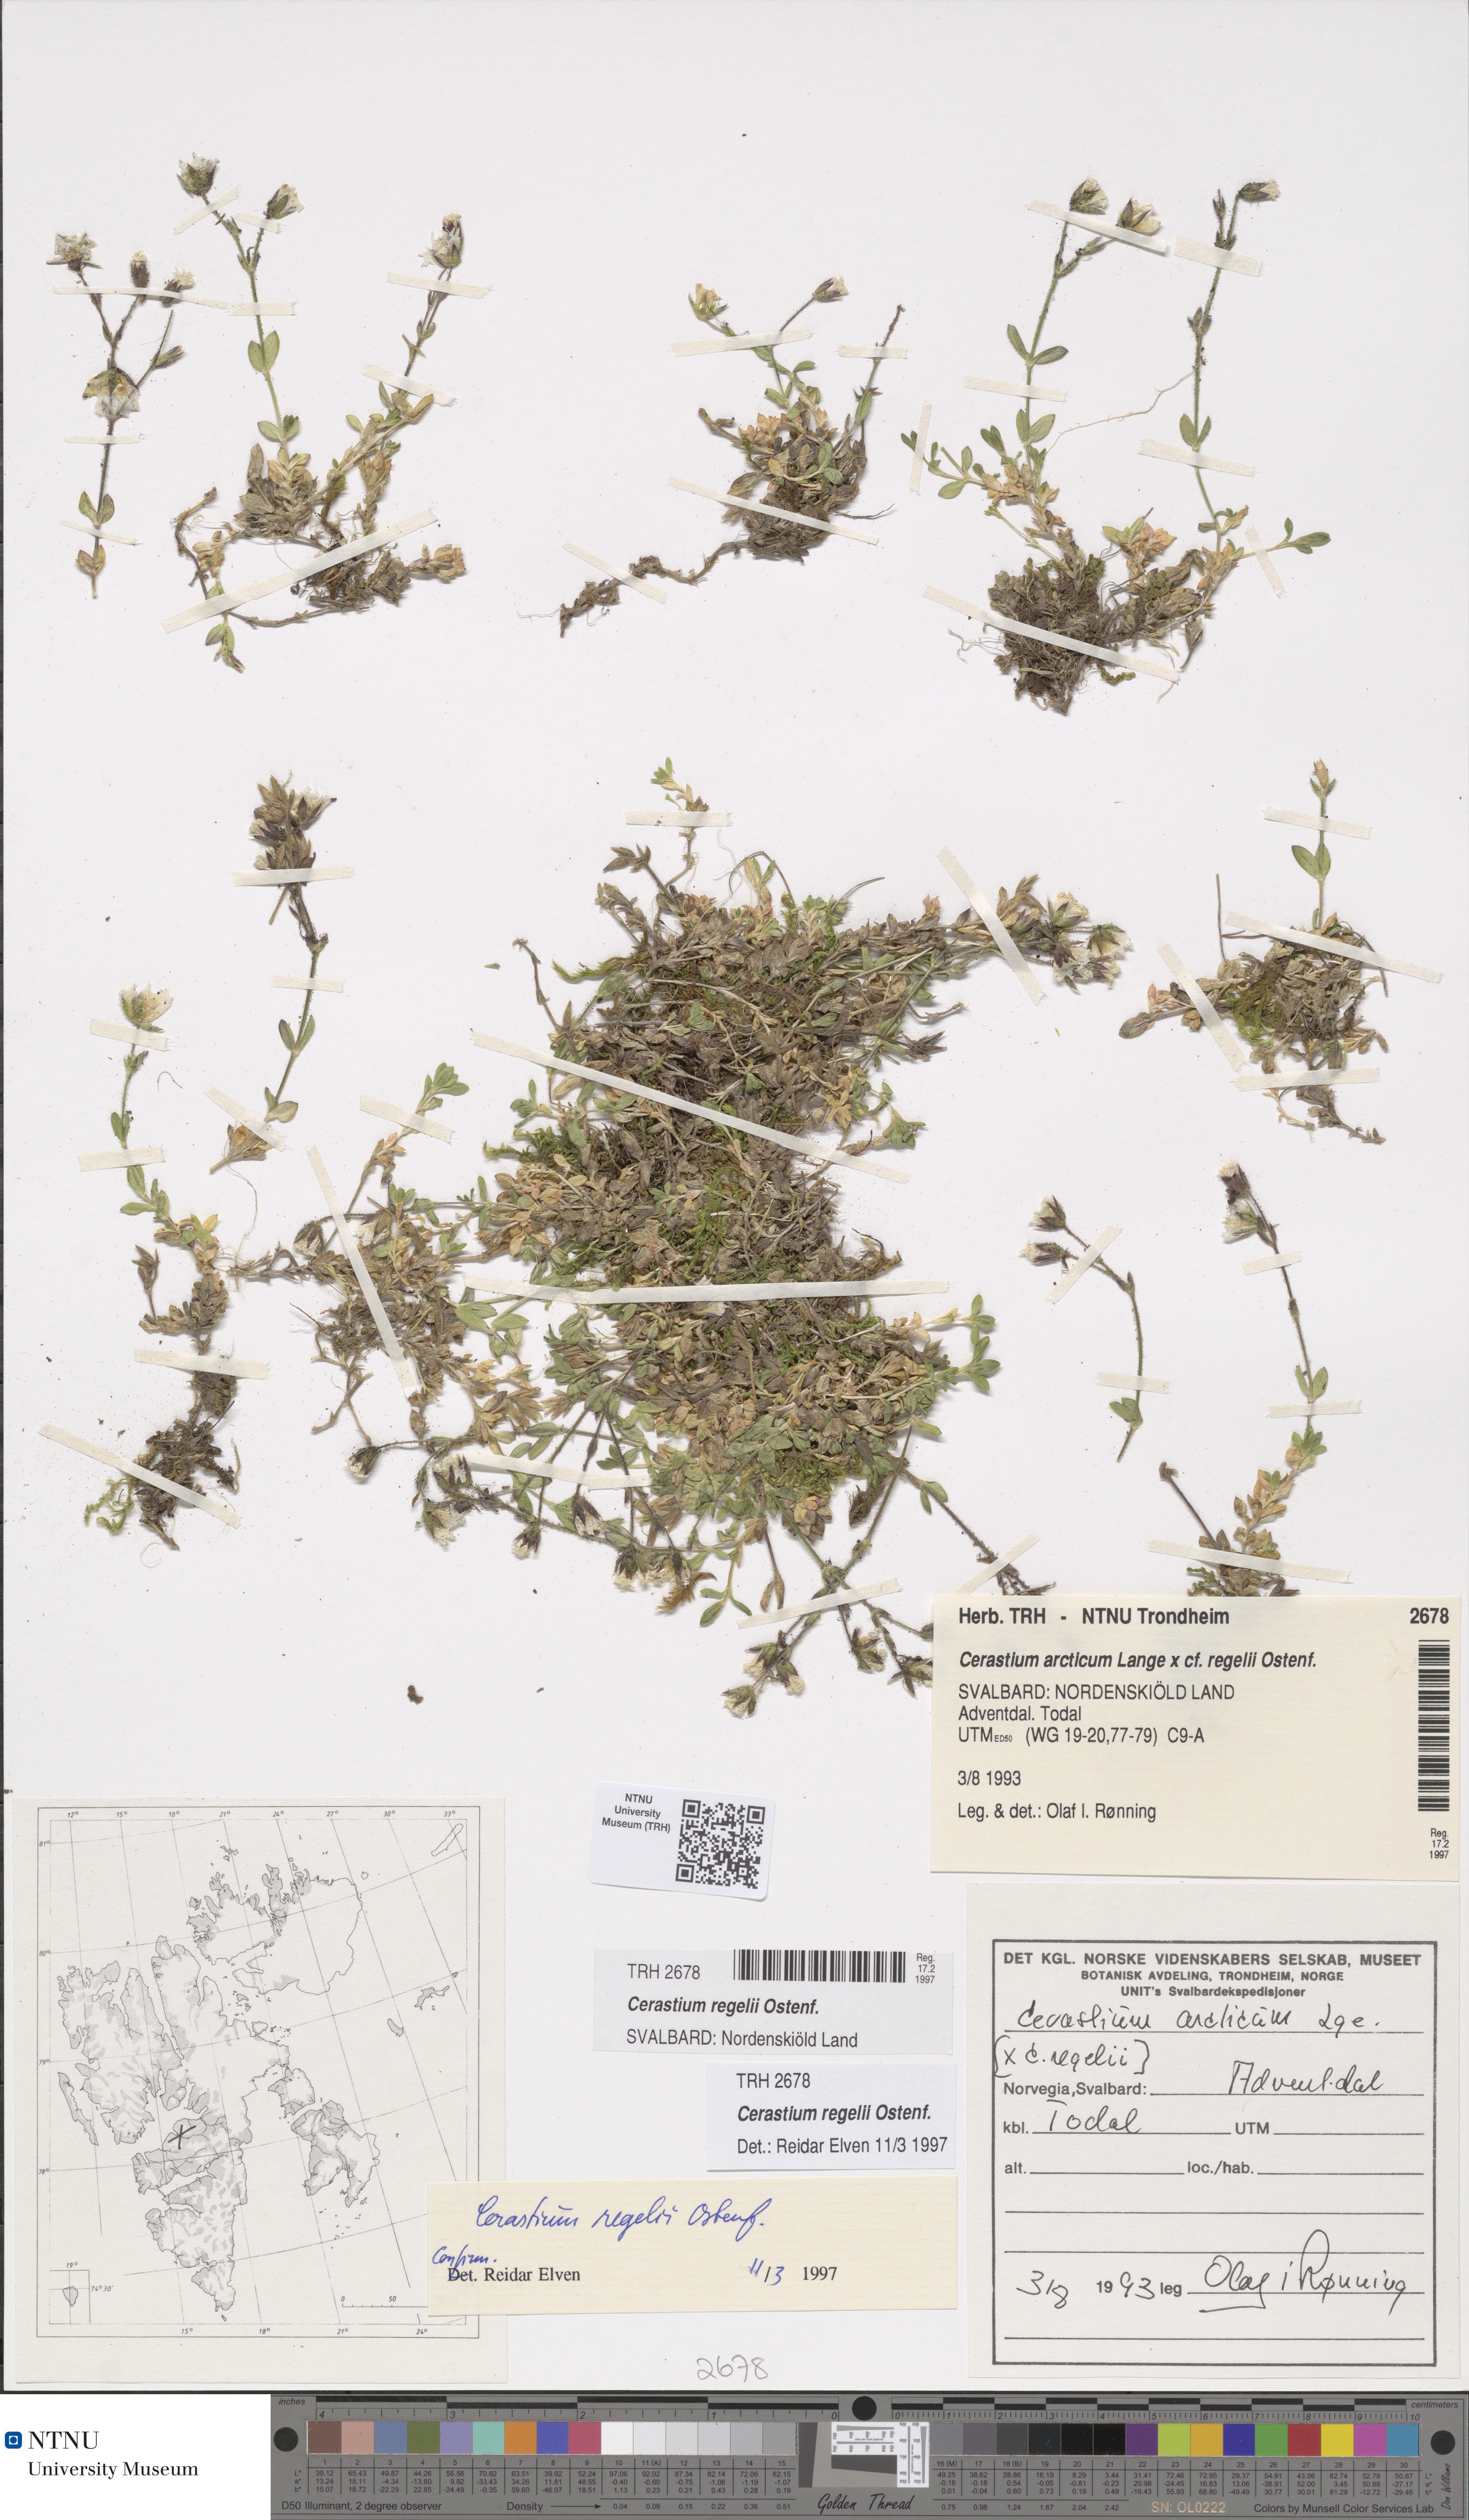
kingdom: Plantae
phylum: Tracheophyta
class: Magnoliopsida
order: Caryophyllales
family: Caryophyllaceae
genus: Cerastium
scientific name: Cerastium arcticum
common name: Arctic mouse-ear
